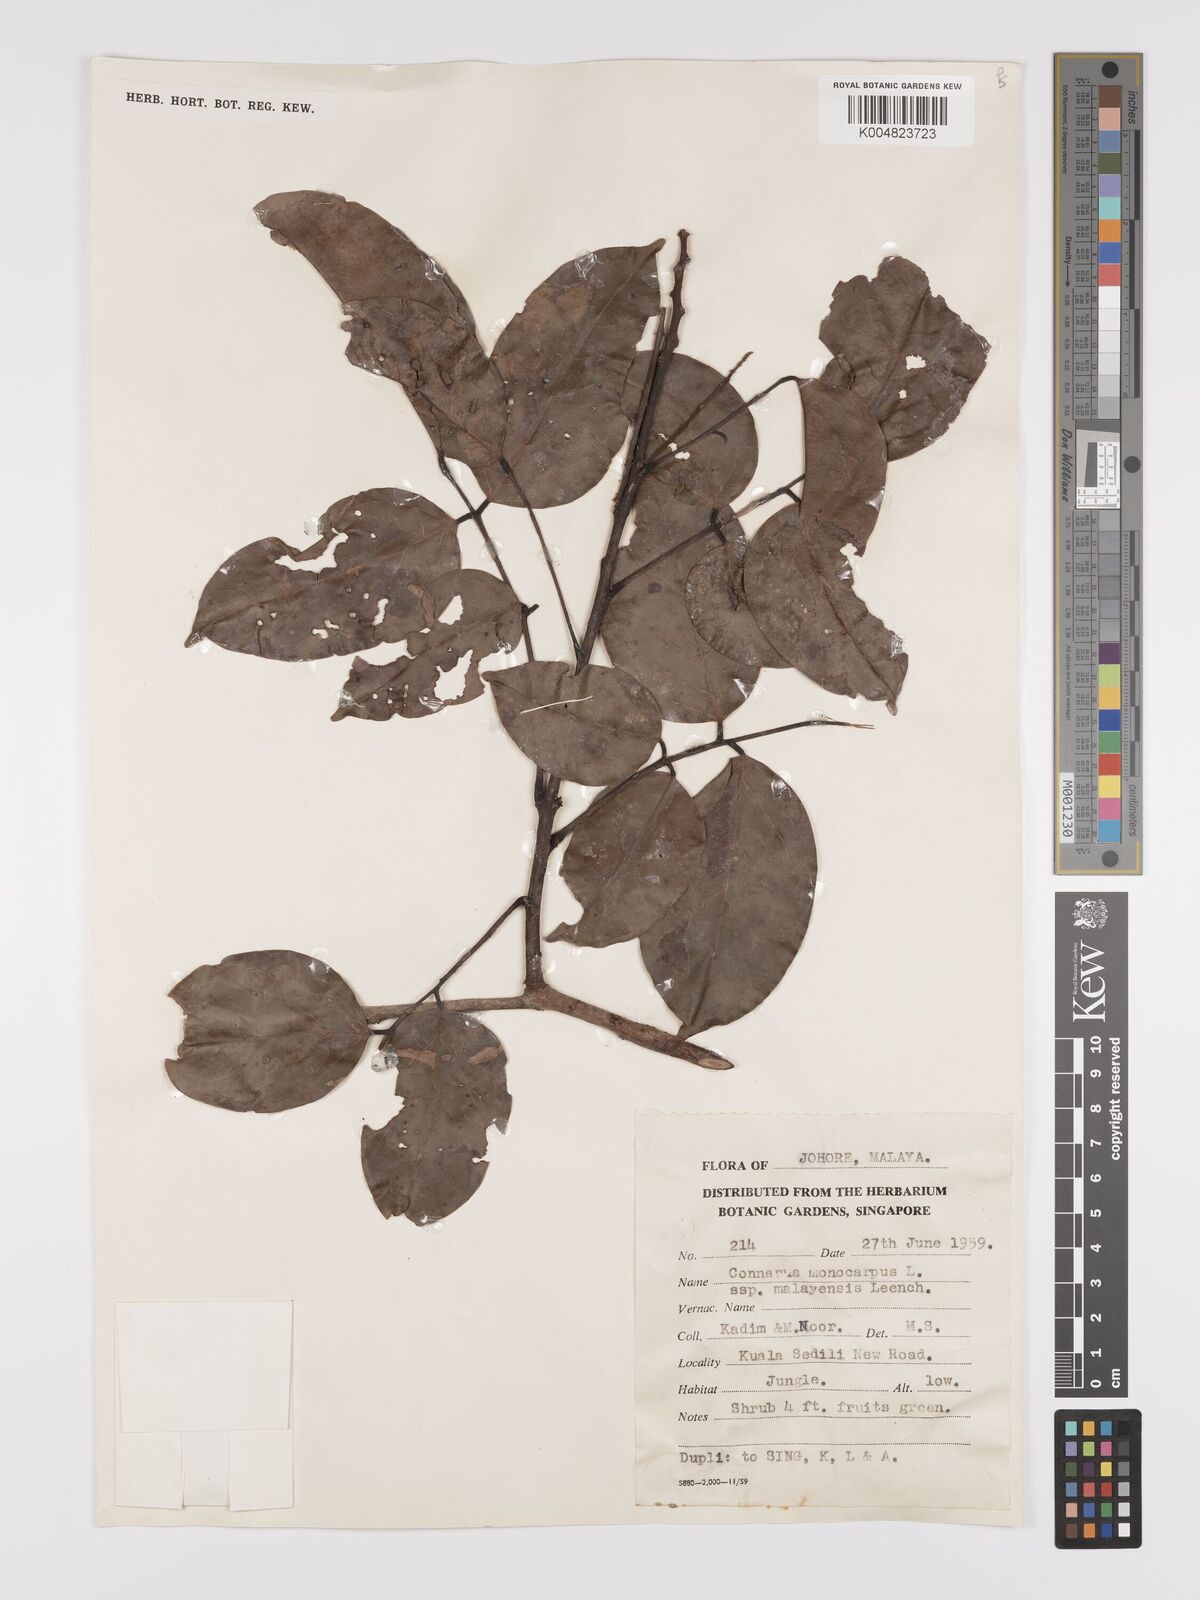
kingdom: Plantae
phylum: Tracheophyta
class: Magnoliopsida
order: Oxalidales
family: Connaraceae
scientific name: Connaraceae
